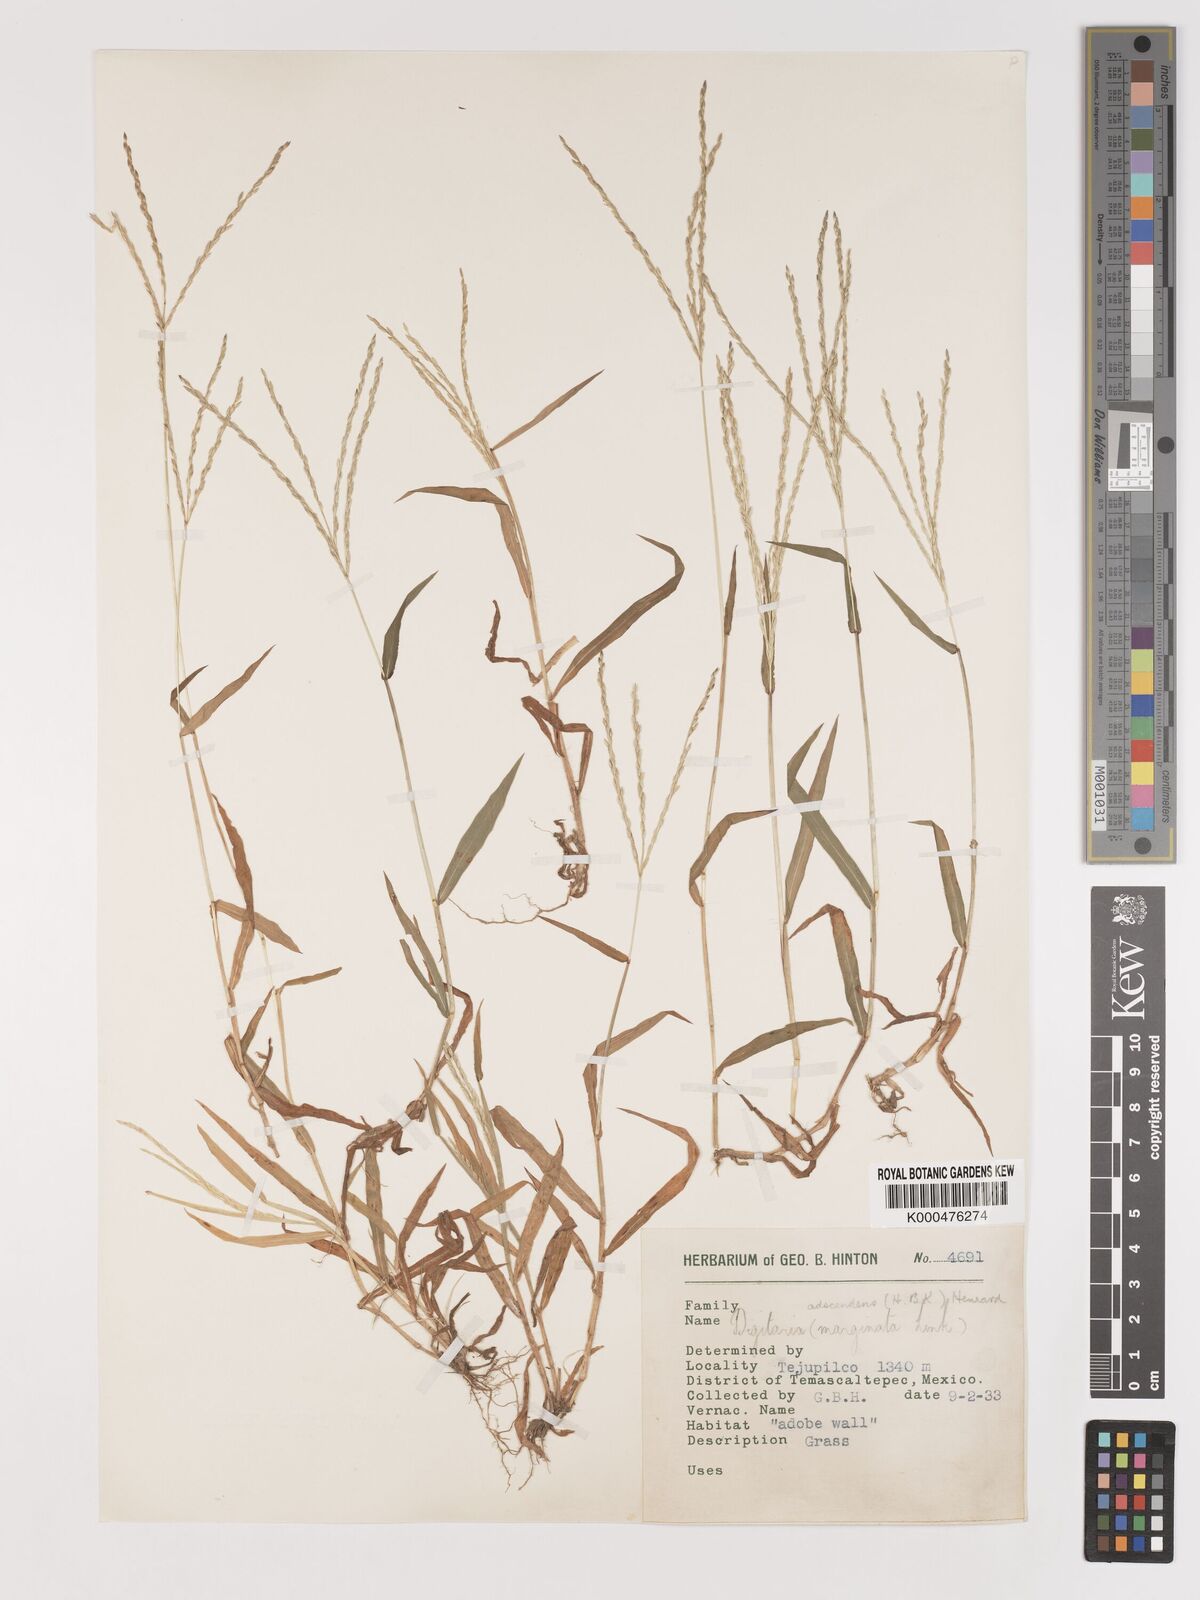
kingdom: Plantae
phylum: Tracheophyta
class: Liliopsida
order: Poales
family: Poaceae
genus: Digitaria
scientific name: Digitaria ciliaris
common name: Tropical finger-grass
